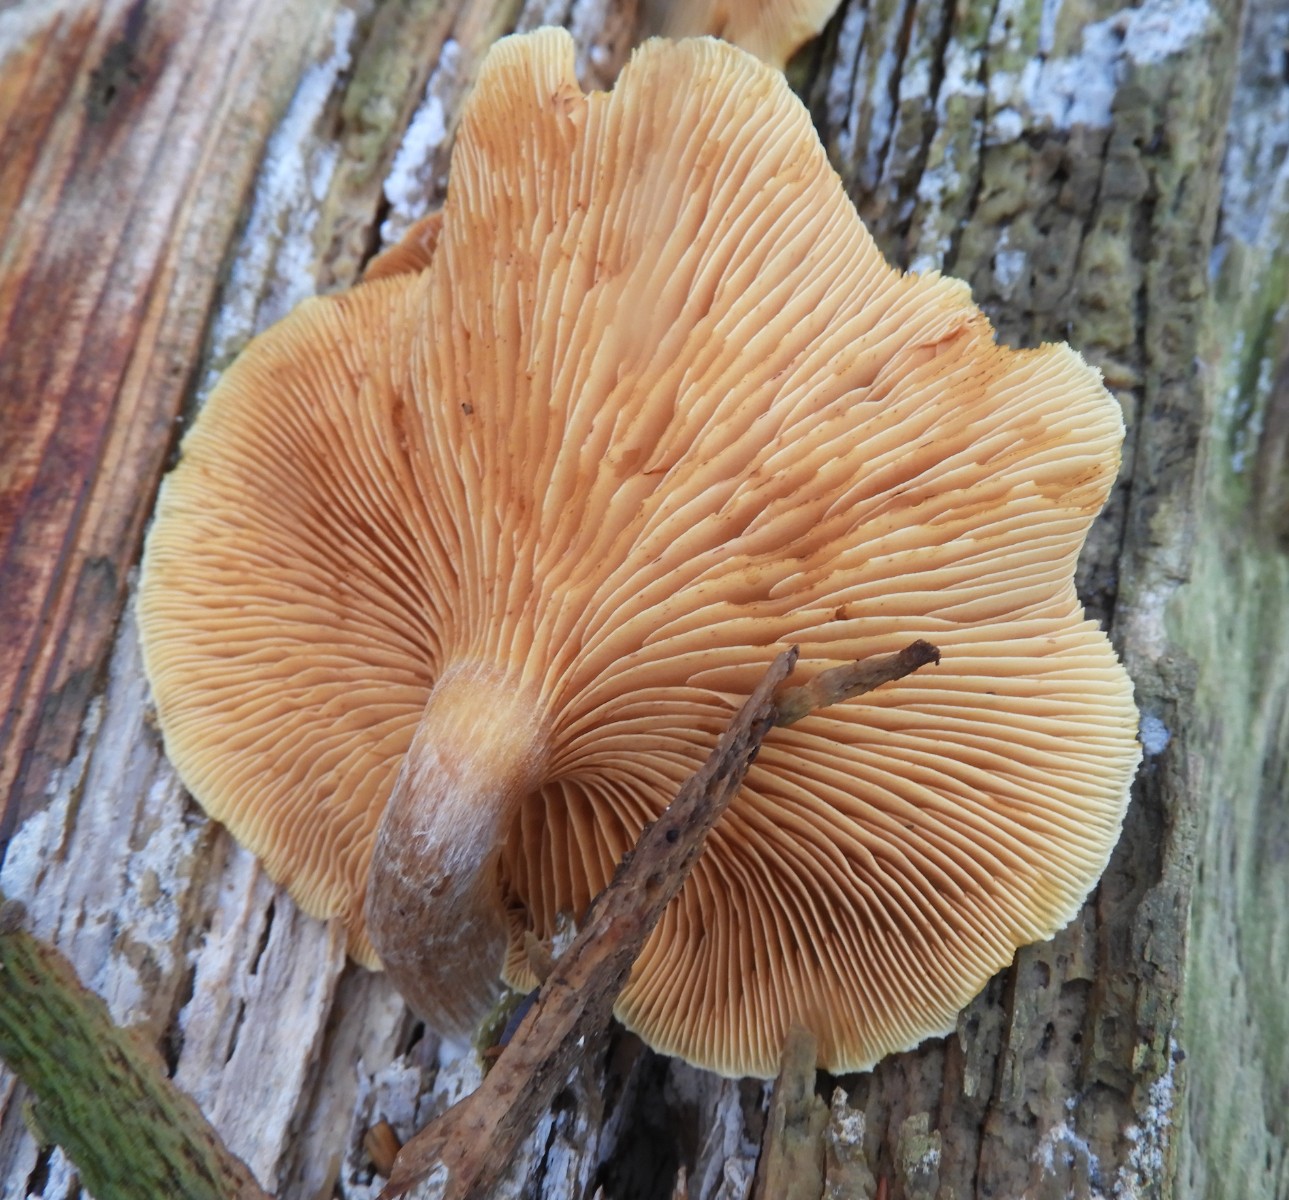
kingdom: Fungi
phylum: Basidiomycota
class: Agaricomycetes
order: Agaricales
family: Hymenogastraceae
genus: Gymnopilus
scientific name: Gymnopilus penetrans
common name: plettet flammehat
